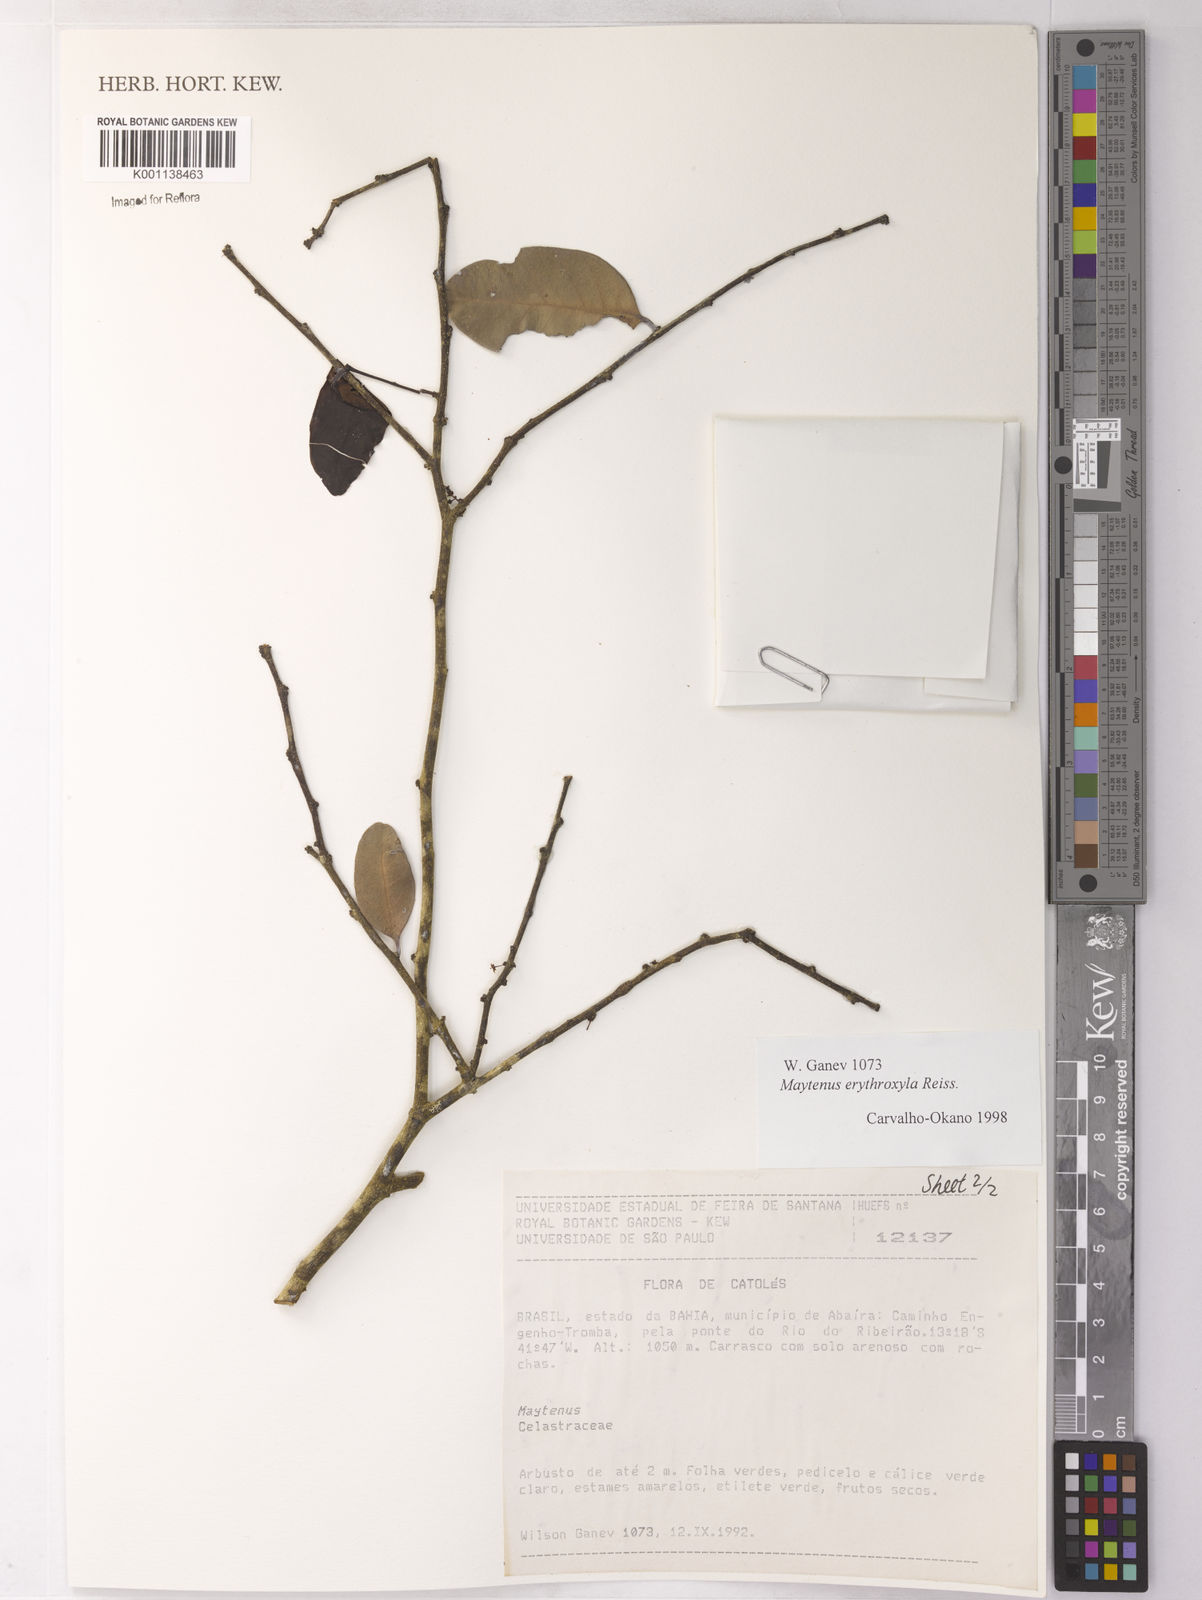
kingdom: Plantae
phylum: Tracheophyta
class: Magnoliopsida
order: Celastrales
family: Celastraceae
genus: Monteverdia
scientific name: Monteverdia erythroxylon
